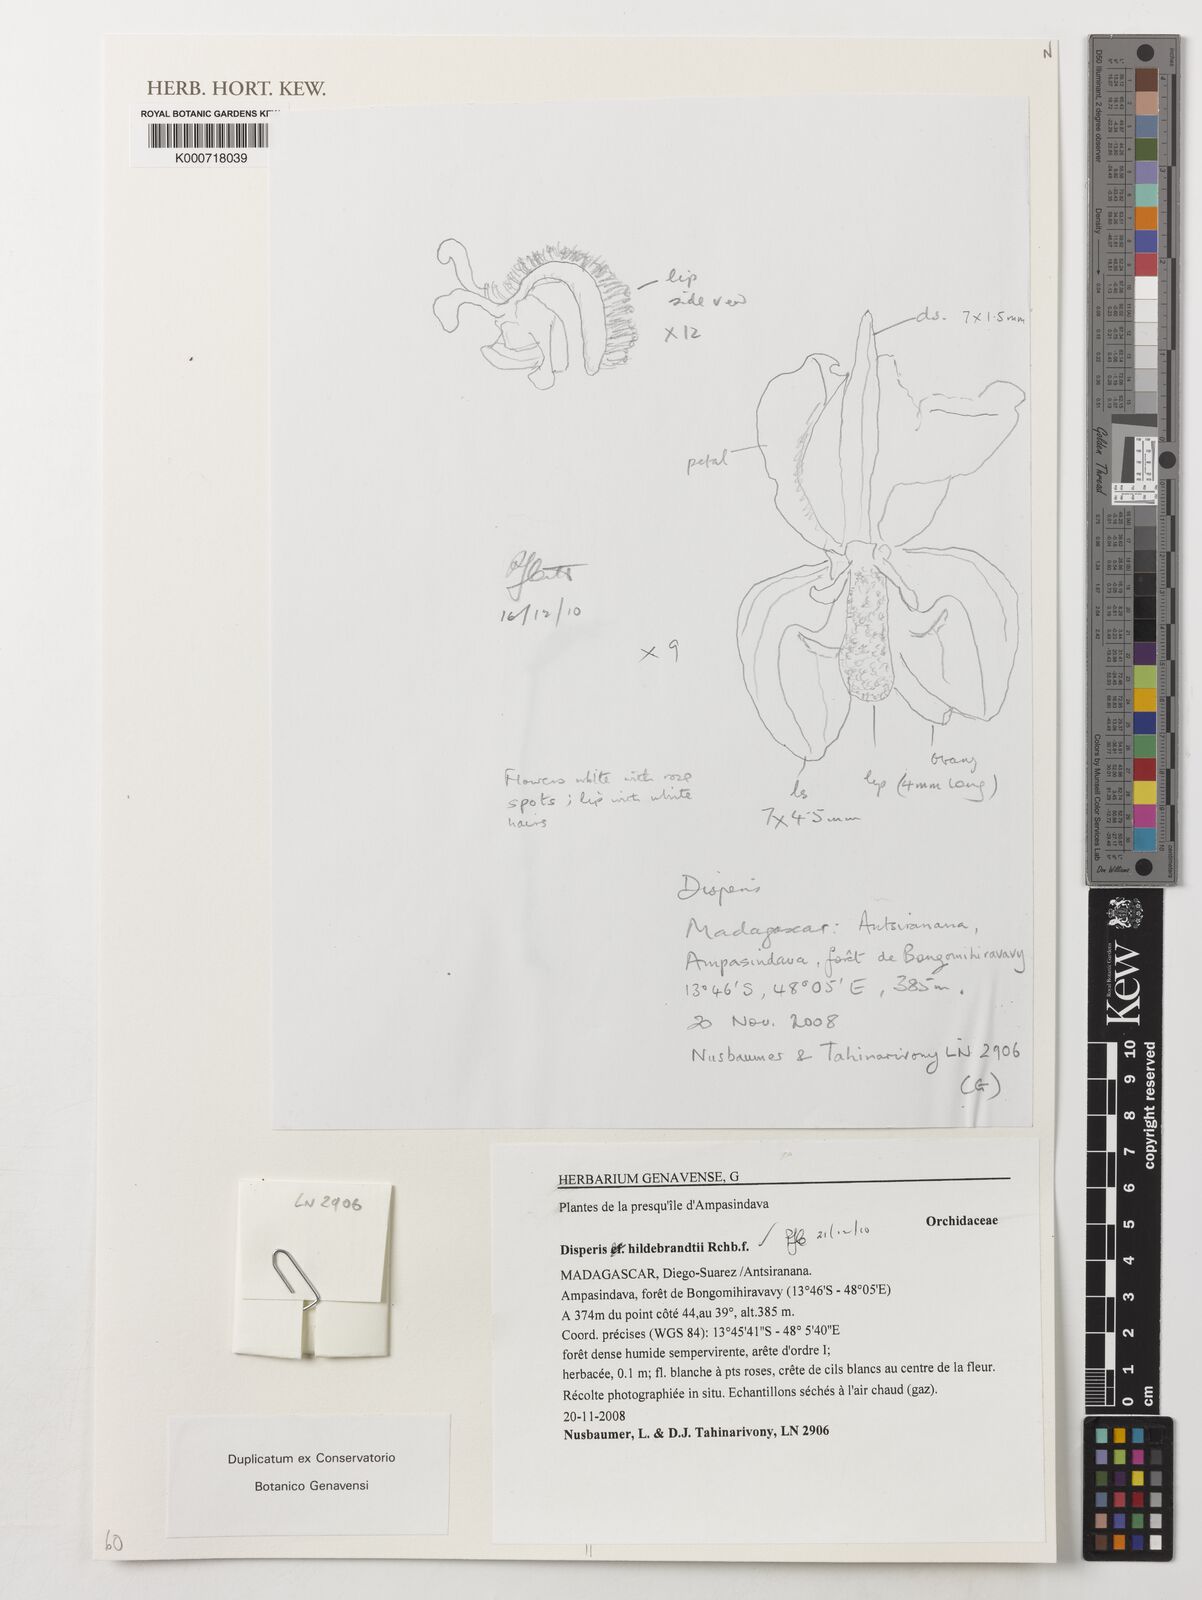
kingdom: Plantae
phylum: Tracheophyta
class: Liliopsida
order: Asparagales
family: Orchidaceae
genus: Disperis
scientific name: Disperis hildebrandtii
